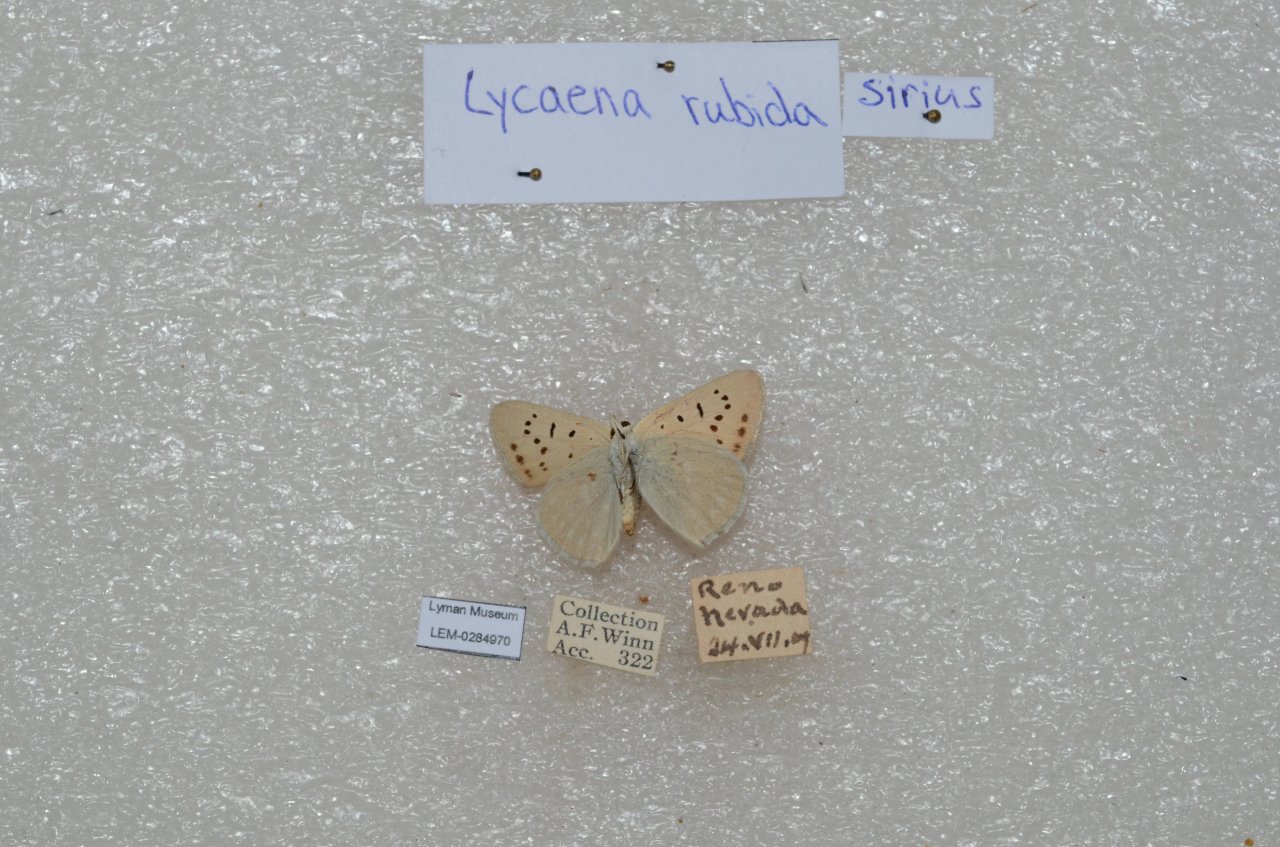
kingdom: Animalia
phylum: Arthropoda
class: Insecta
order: Lepidoptera
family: Sesiidae
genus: Sesia
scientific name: Sesia Lycaena rubidus
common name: Ruddy Copper
